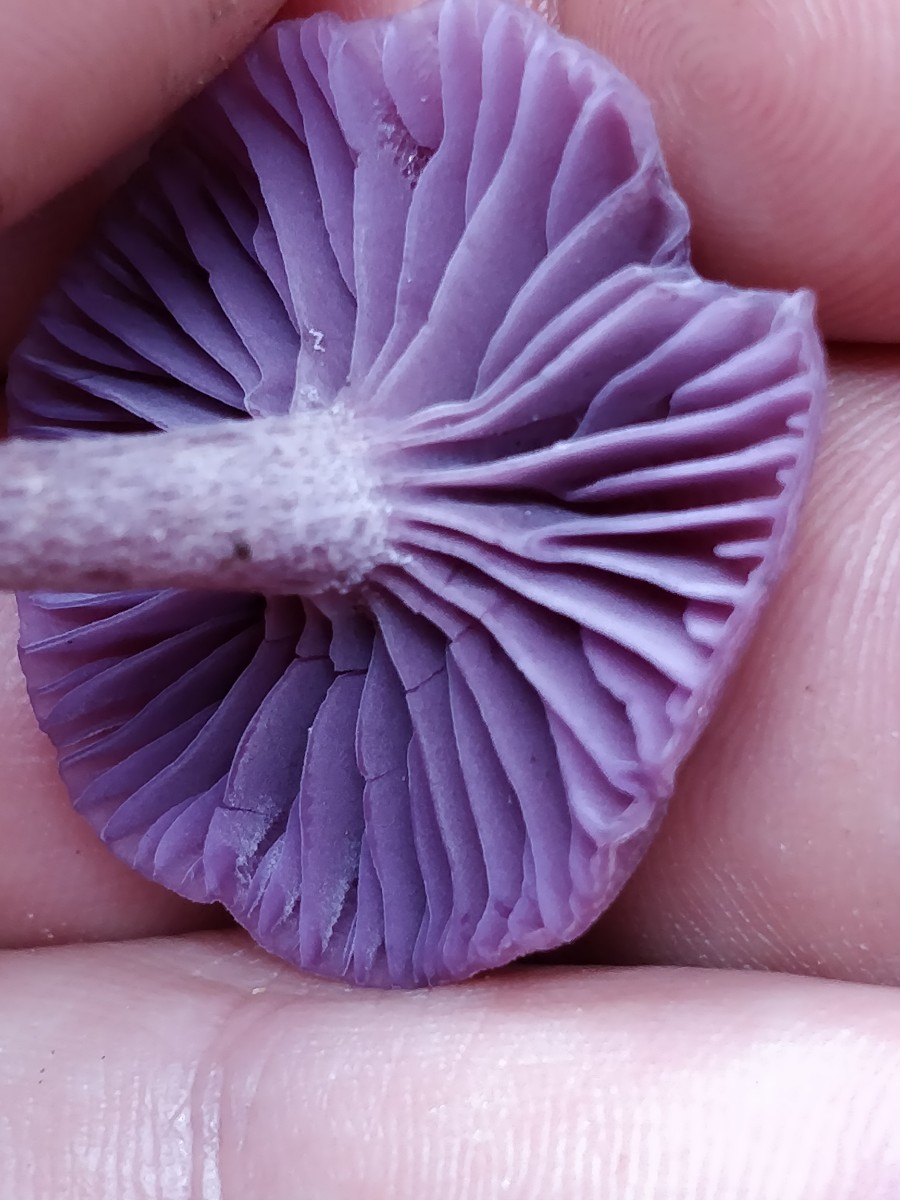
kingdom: Fungi
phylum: Basidiomycota
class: Agaricomycetes
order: Agaricales
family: Hydnangiaceae
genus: Laccaria
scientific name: Laccaria amethystina
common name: violet ametysthat
